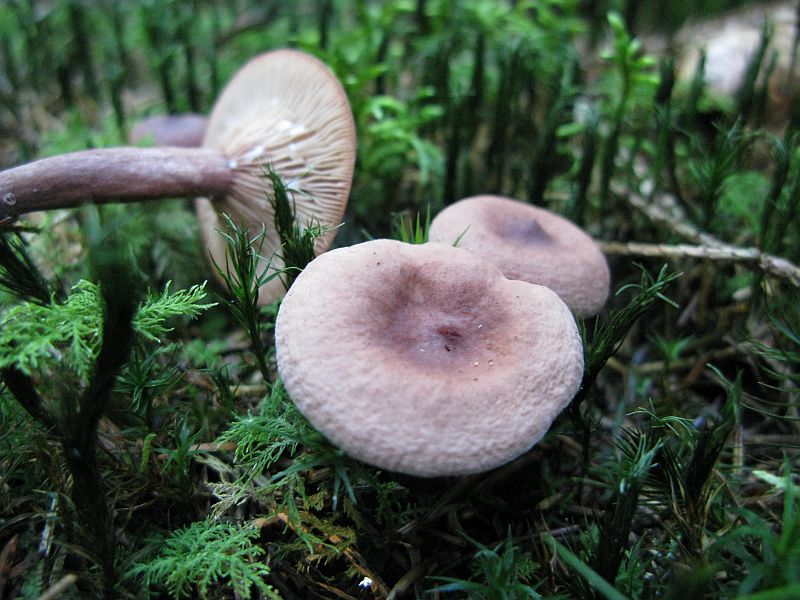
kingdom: Fungi
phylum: Basidiomycota
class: Agaricomycetes
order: Russulales
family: Russulaceae
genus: Lactarius
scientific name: Lactarius camphoratus
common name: kamfer-mælkehat
